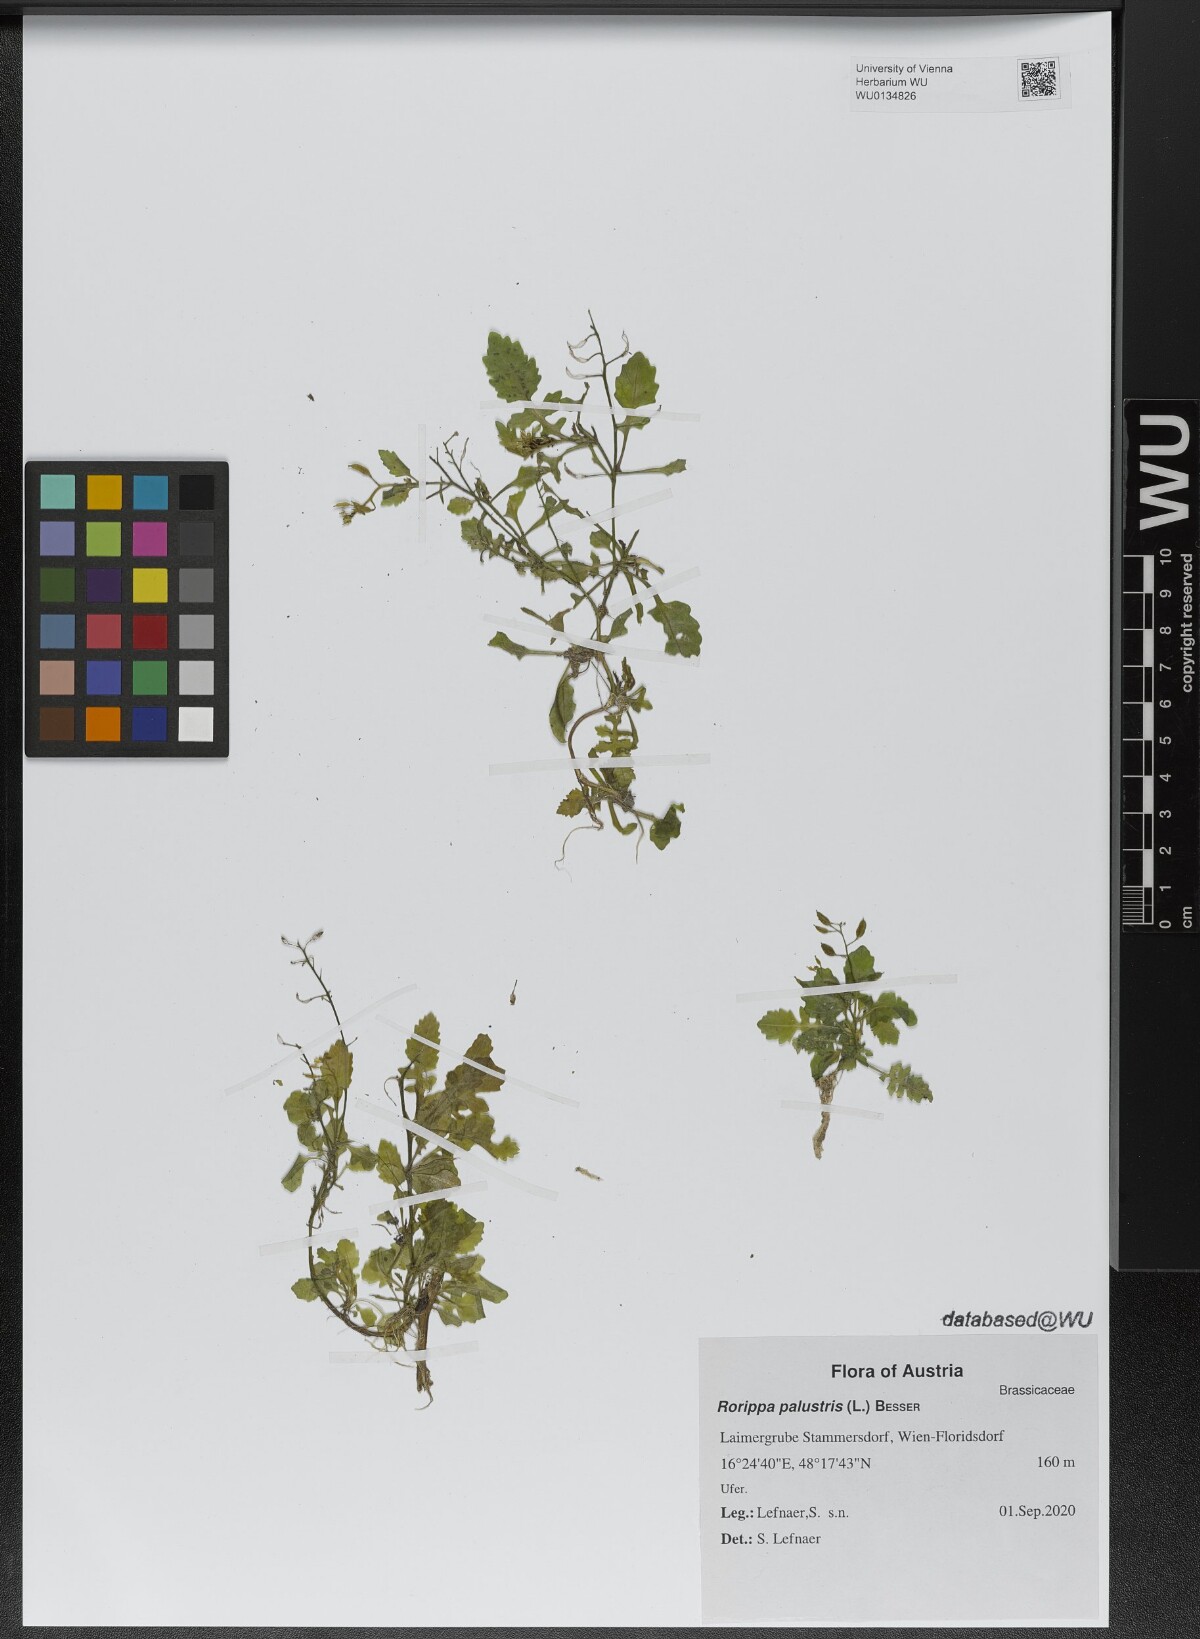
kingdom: Plantae
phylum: Tracheophyta
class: Magnoliopsida
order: Brassicales
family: Brassicaceae
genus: Rorippa
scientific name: Rorippa palustris
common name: Marsh yellow-cress
